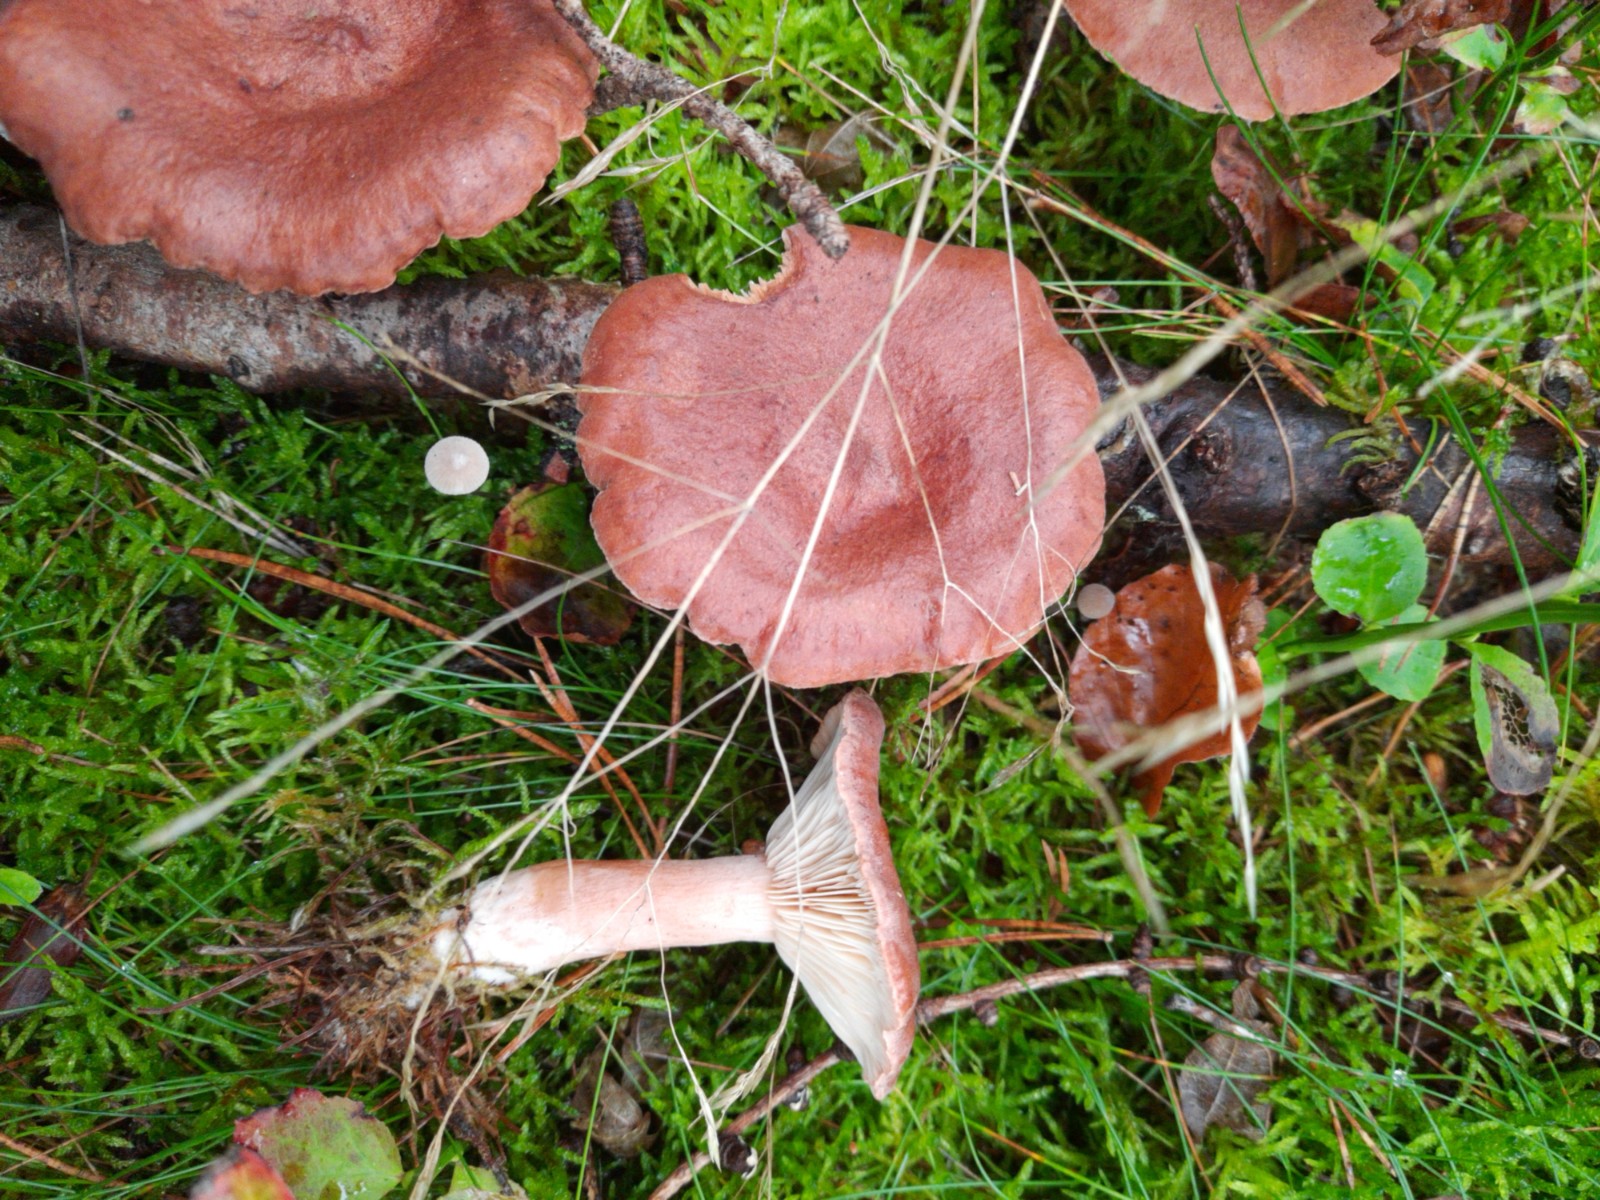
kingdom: Fungi
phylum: Basidiomycota
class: Agaricomycetes
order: Russulales
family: Russulaceae
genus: Lactarius
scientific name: Lactarius rufus
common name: rødbrun mælkehat
